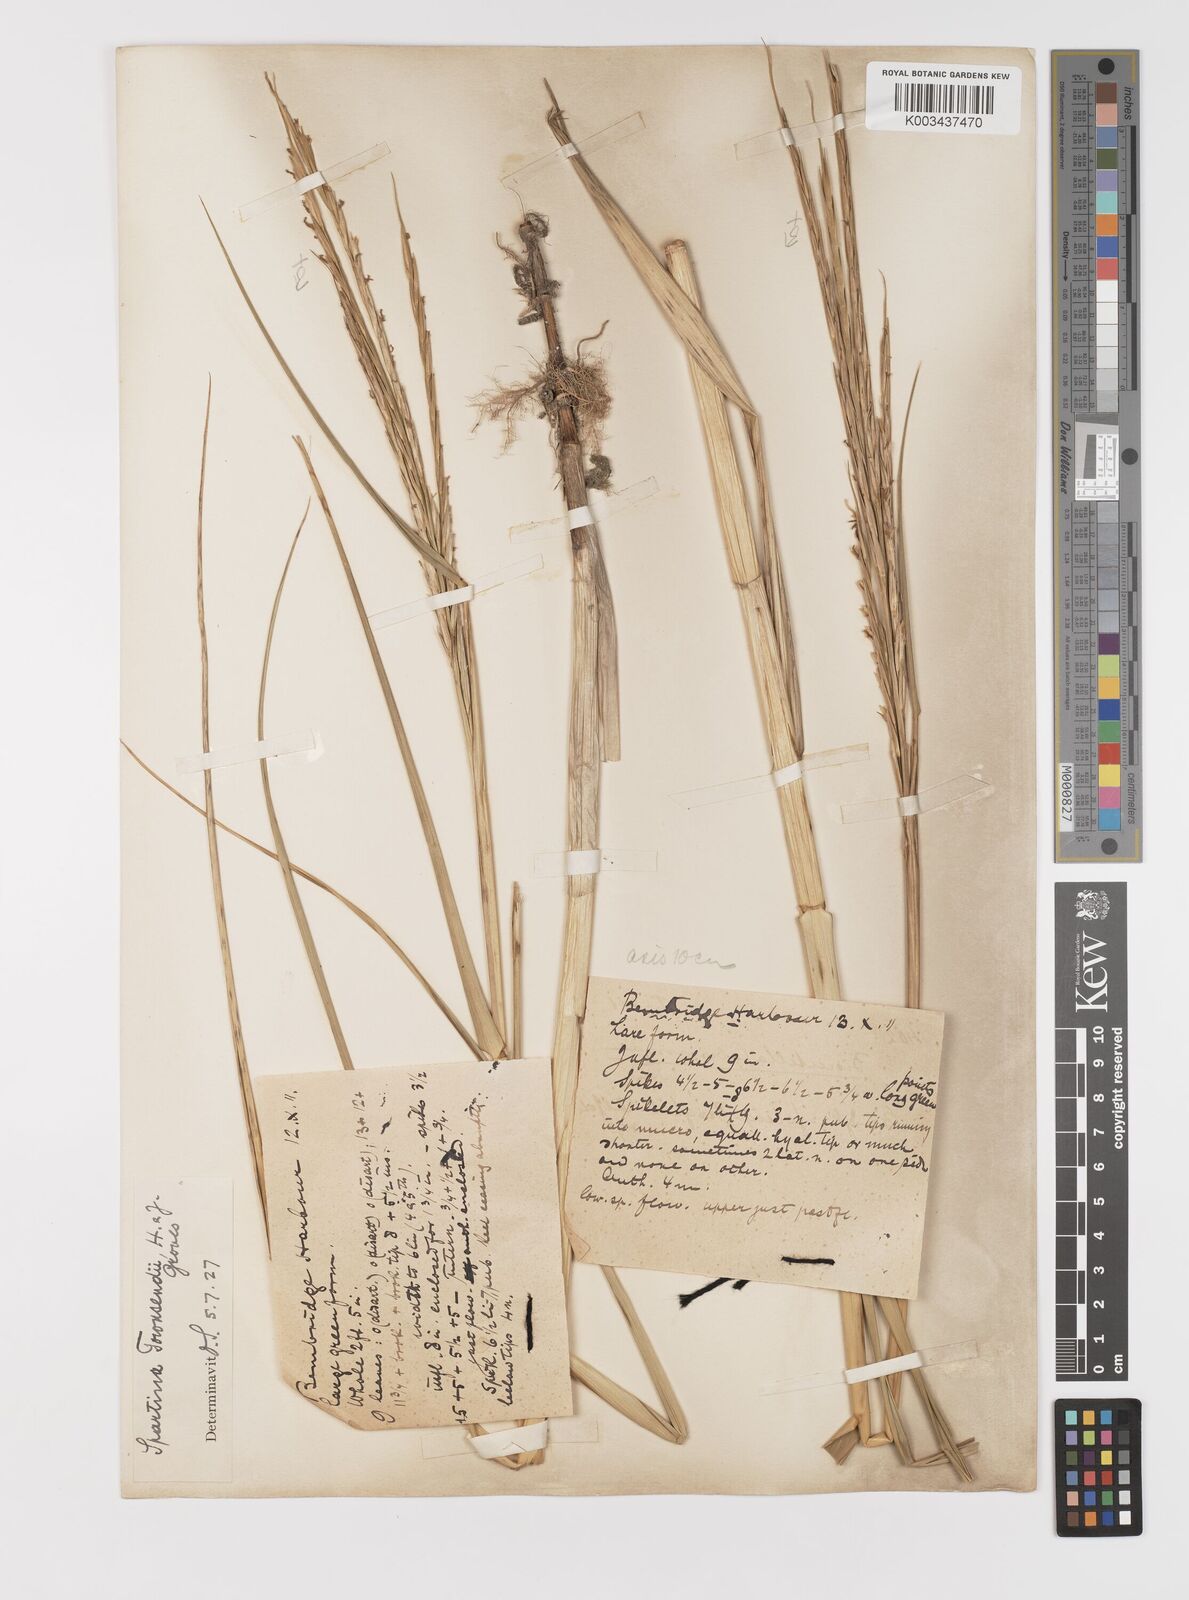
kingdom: Plantae
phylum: Tracheophyta
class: Liliopsida
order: Poales
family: Poaceae
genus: Sporobolus
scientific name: Sporobolus anglicus
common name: English cordgrass
